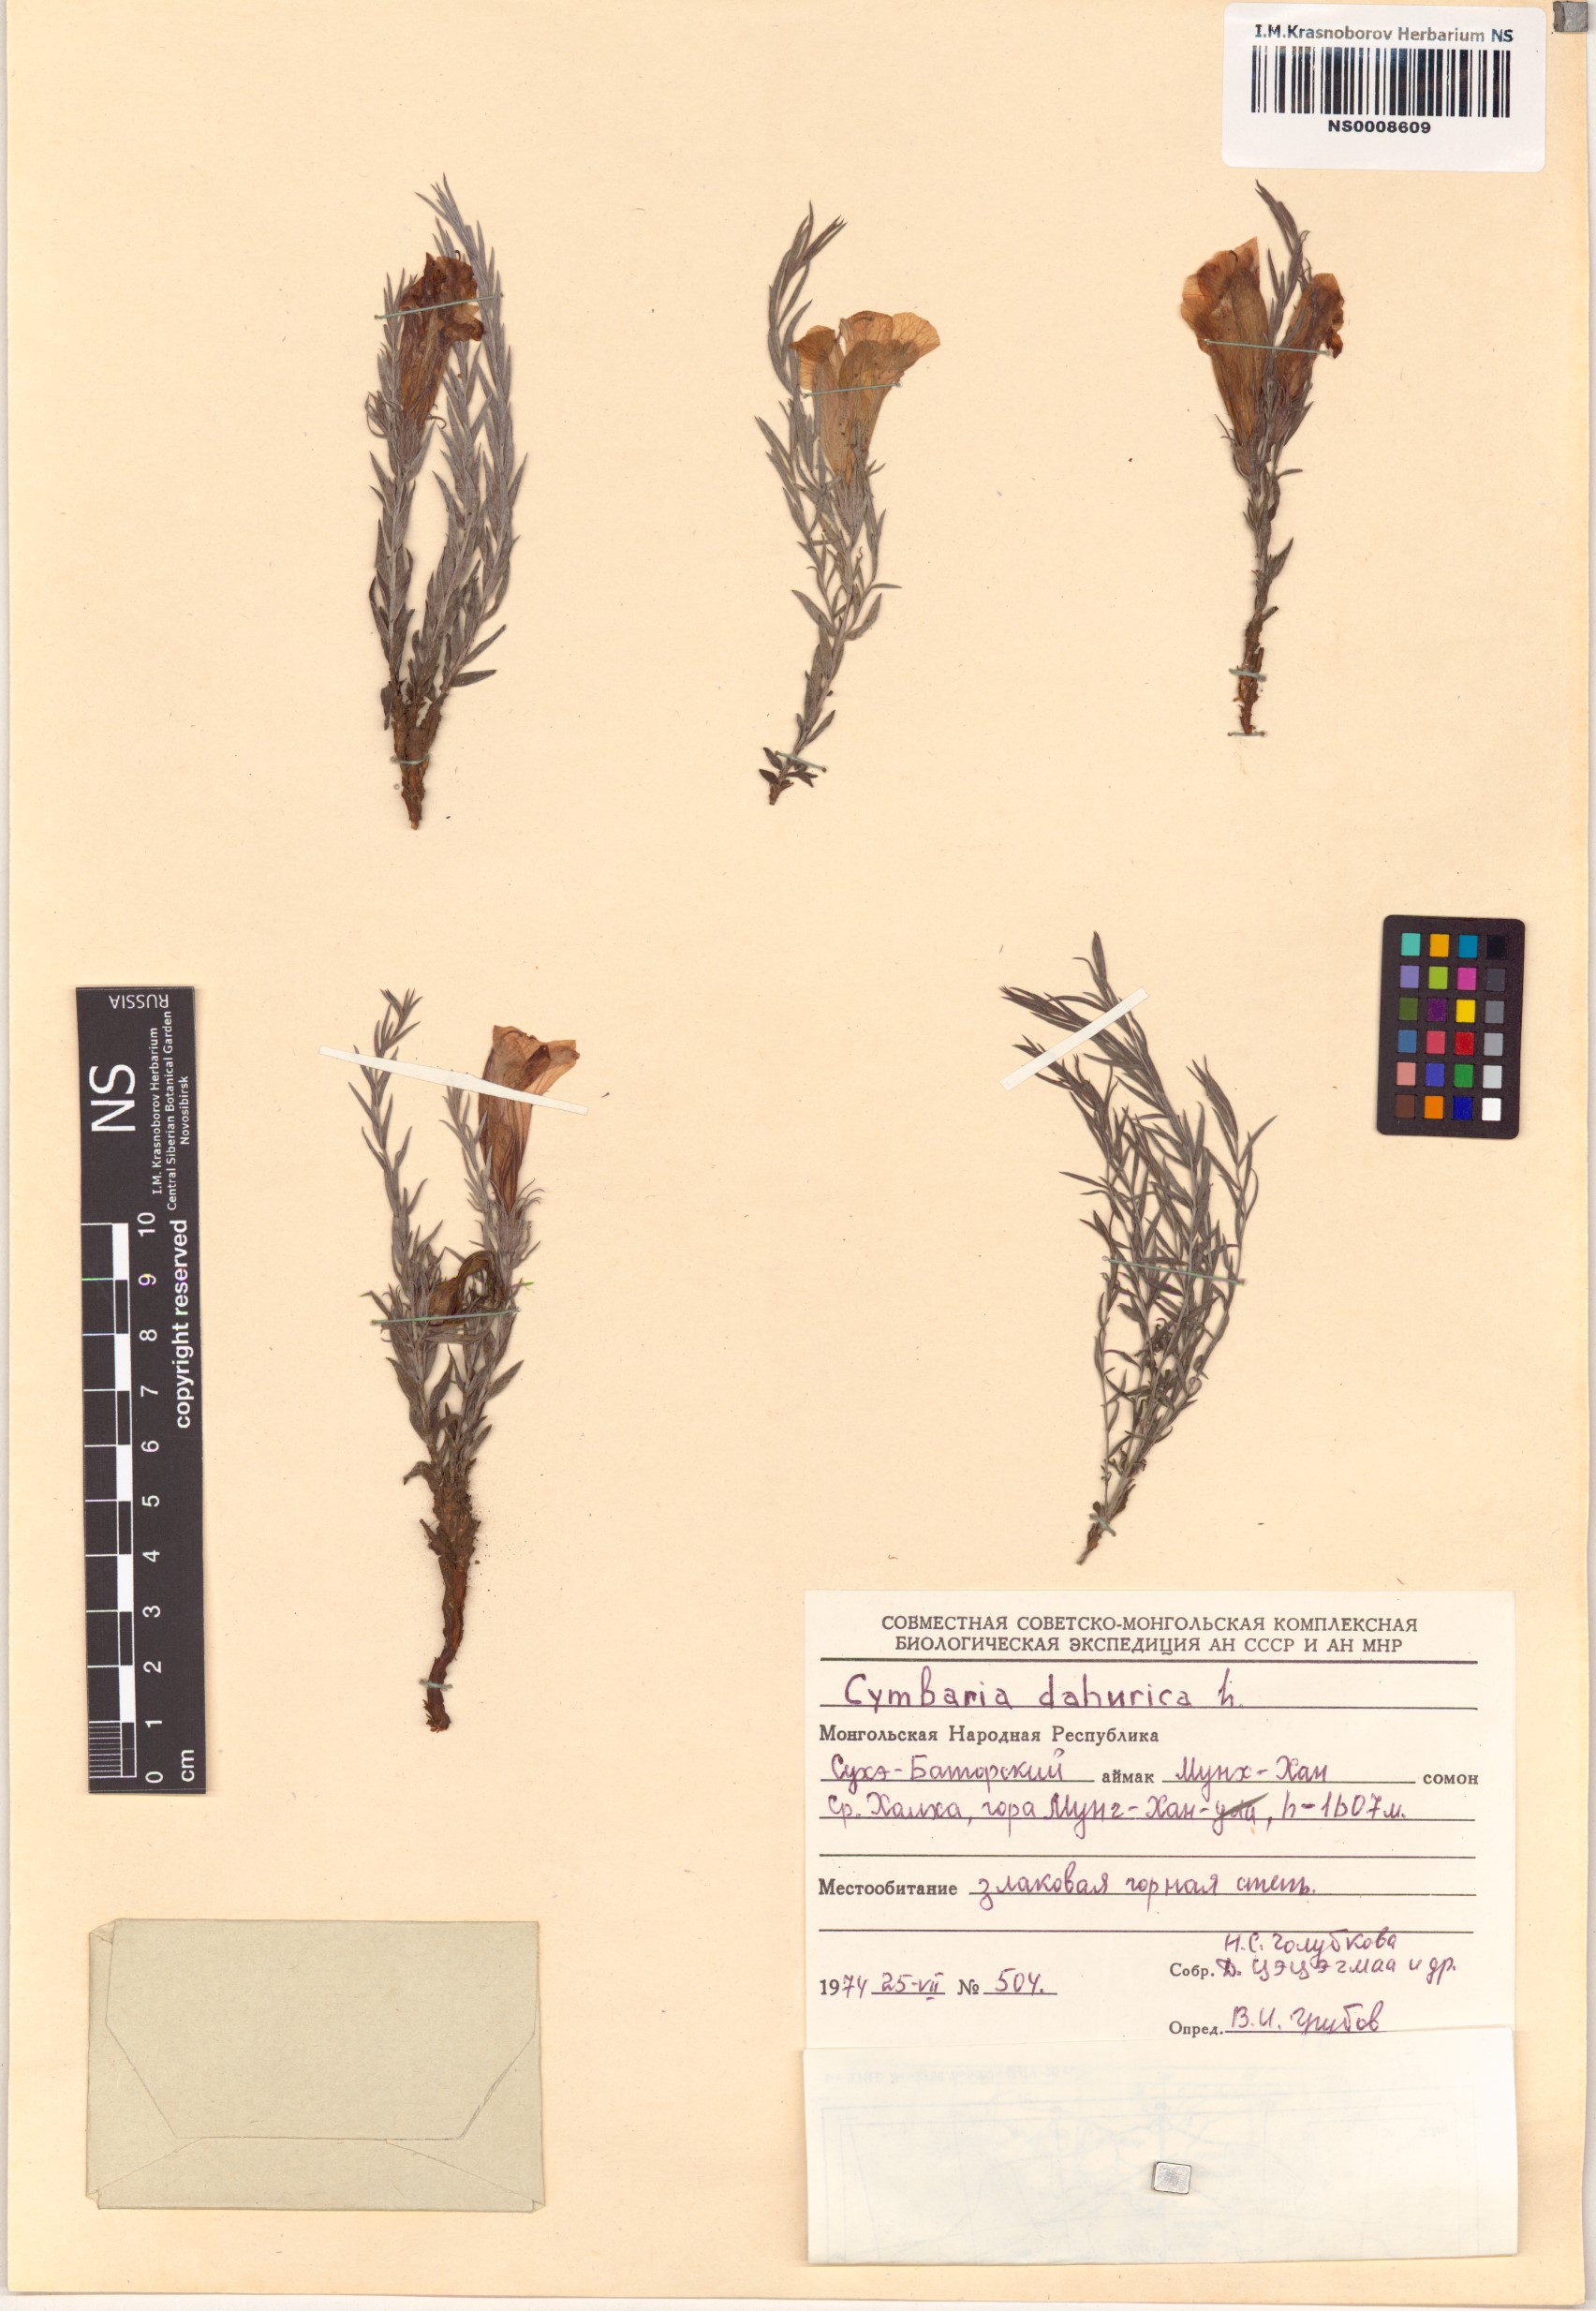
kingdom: Plantae
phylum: Tracheophyta
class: Magnoliopsida
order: Lamiales
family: Orobanchaceae
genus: Cymbaria
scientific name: Cymbaria daurica
